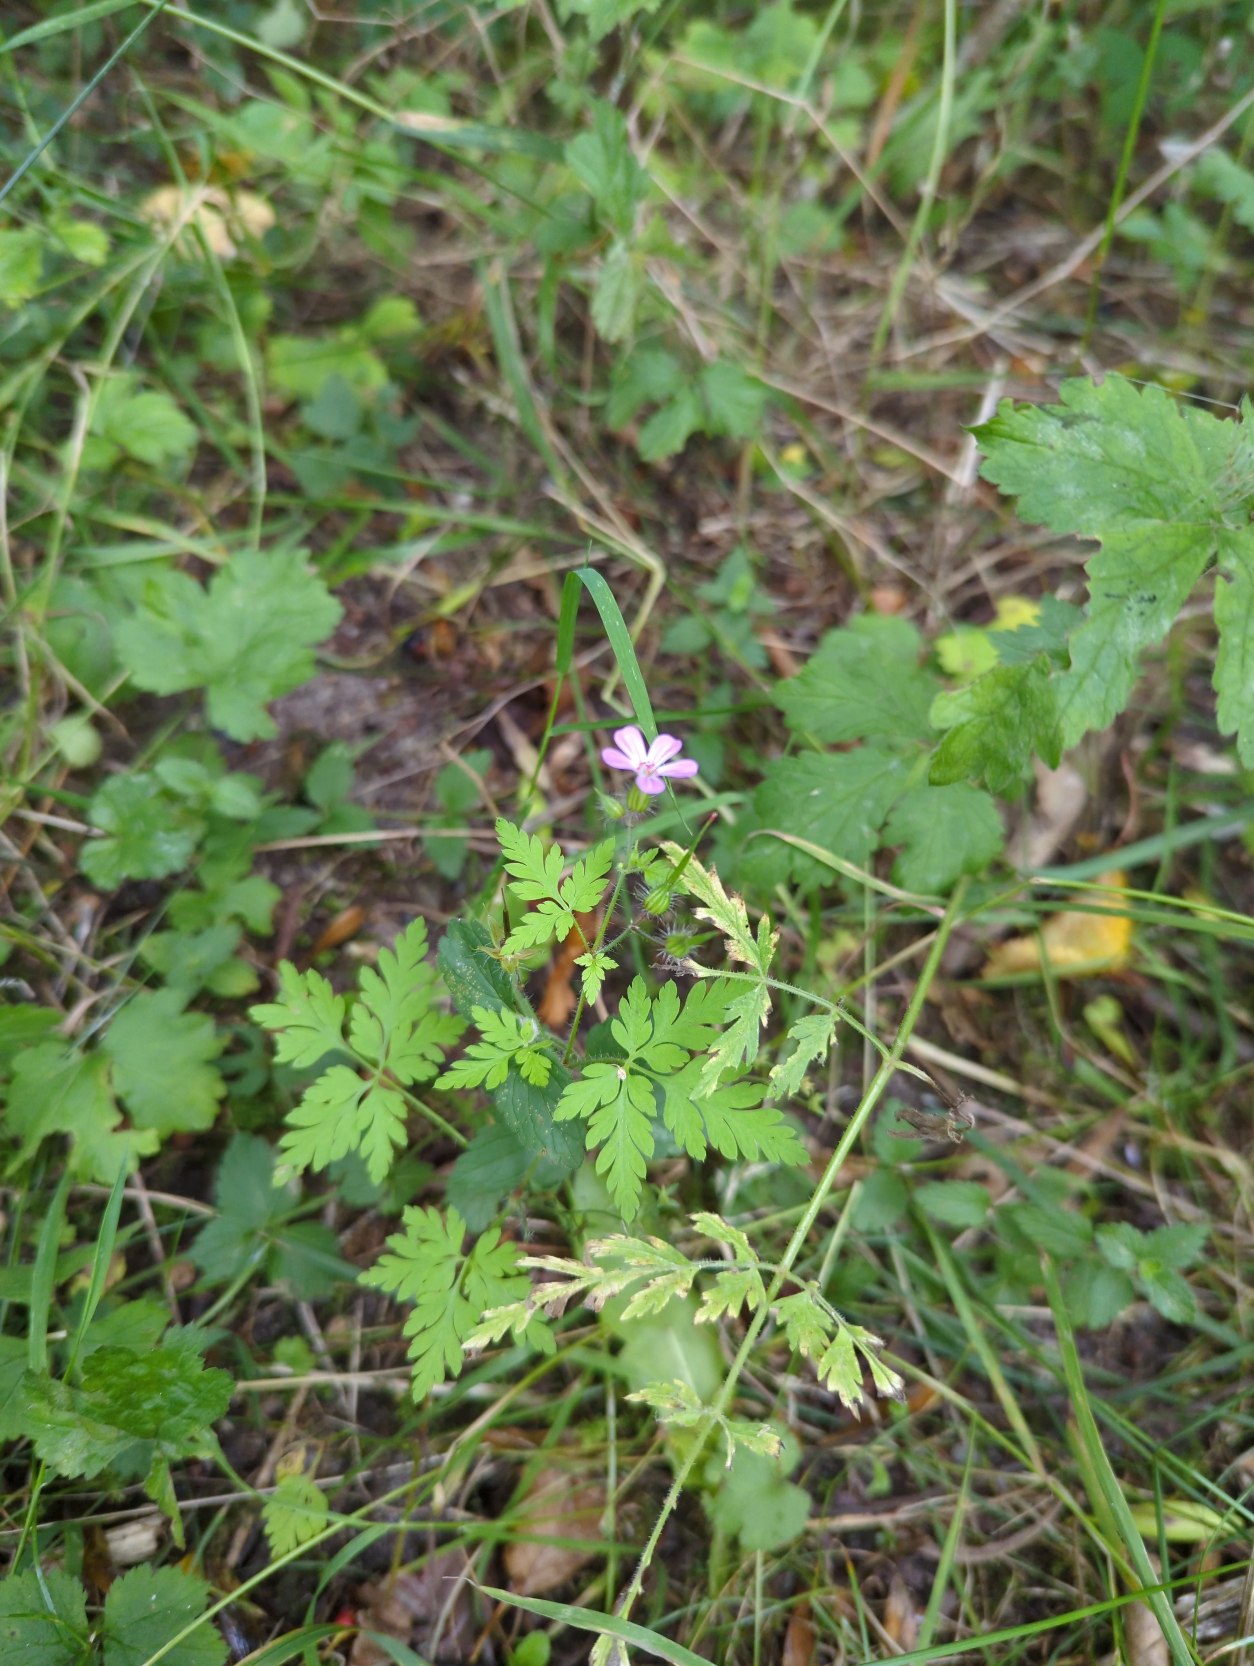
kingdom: Plantae
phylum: Tracheophyta
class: Magnoliopsida
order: Geraniales
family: Geraniaceae
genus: Geranium
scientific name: Geranium robertianum
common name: Stinkende storkenæb
